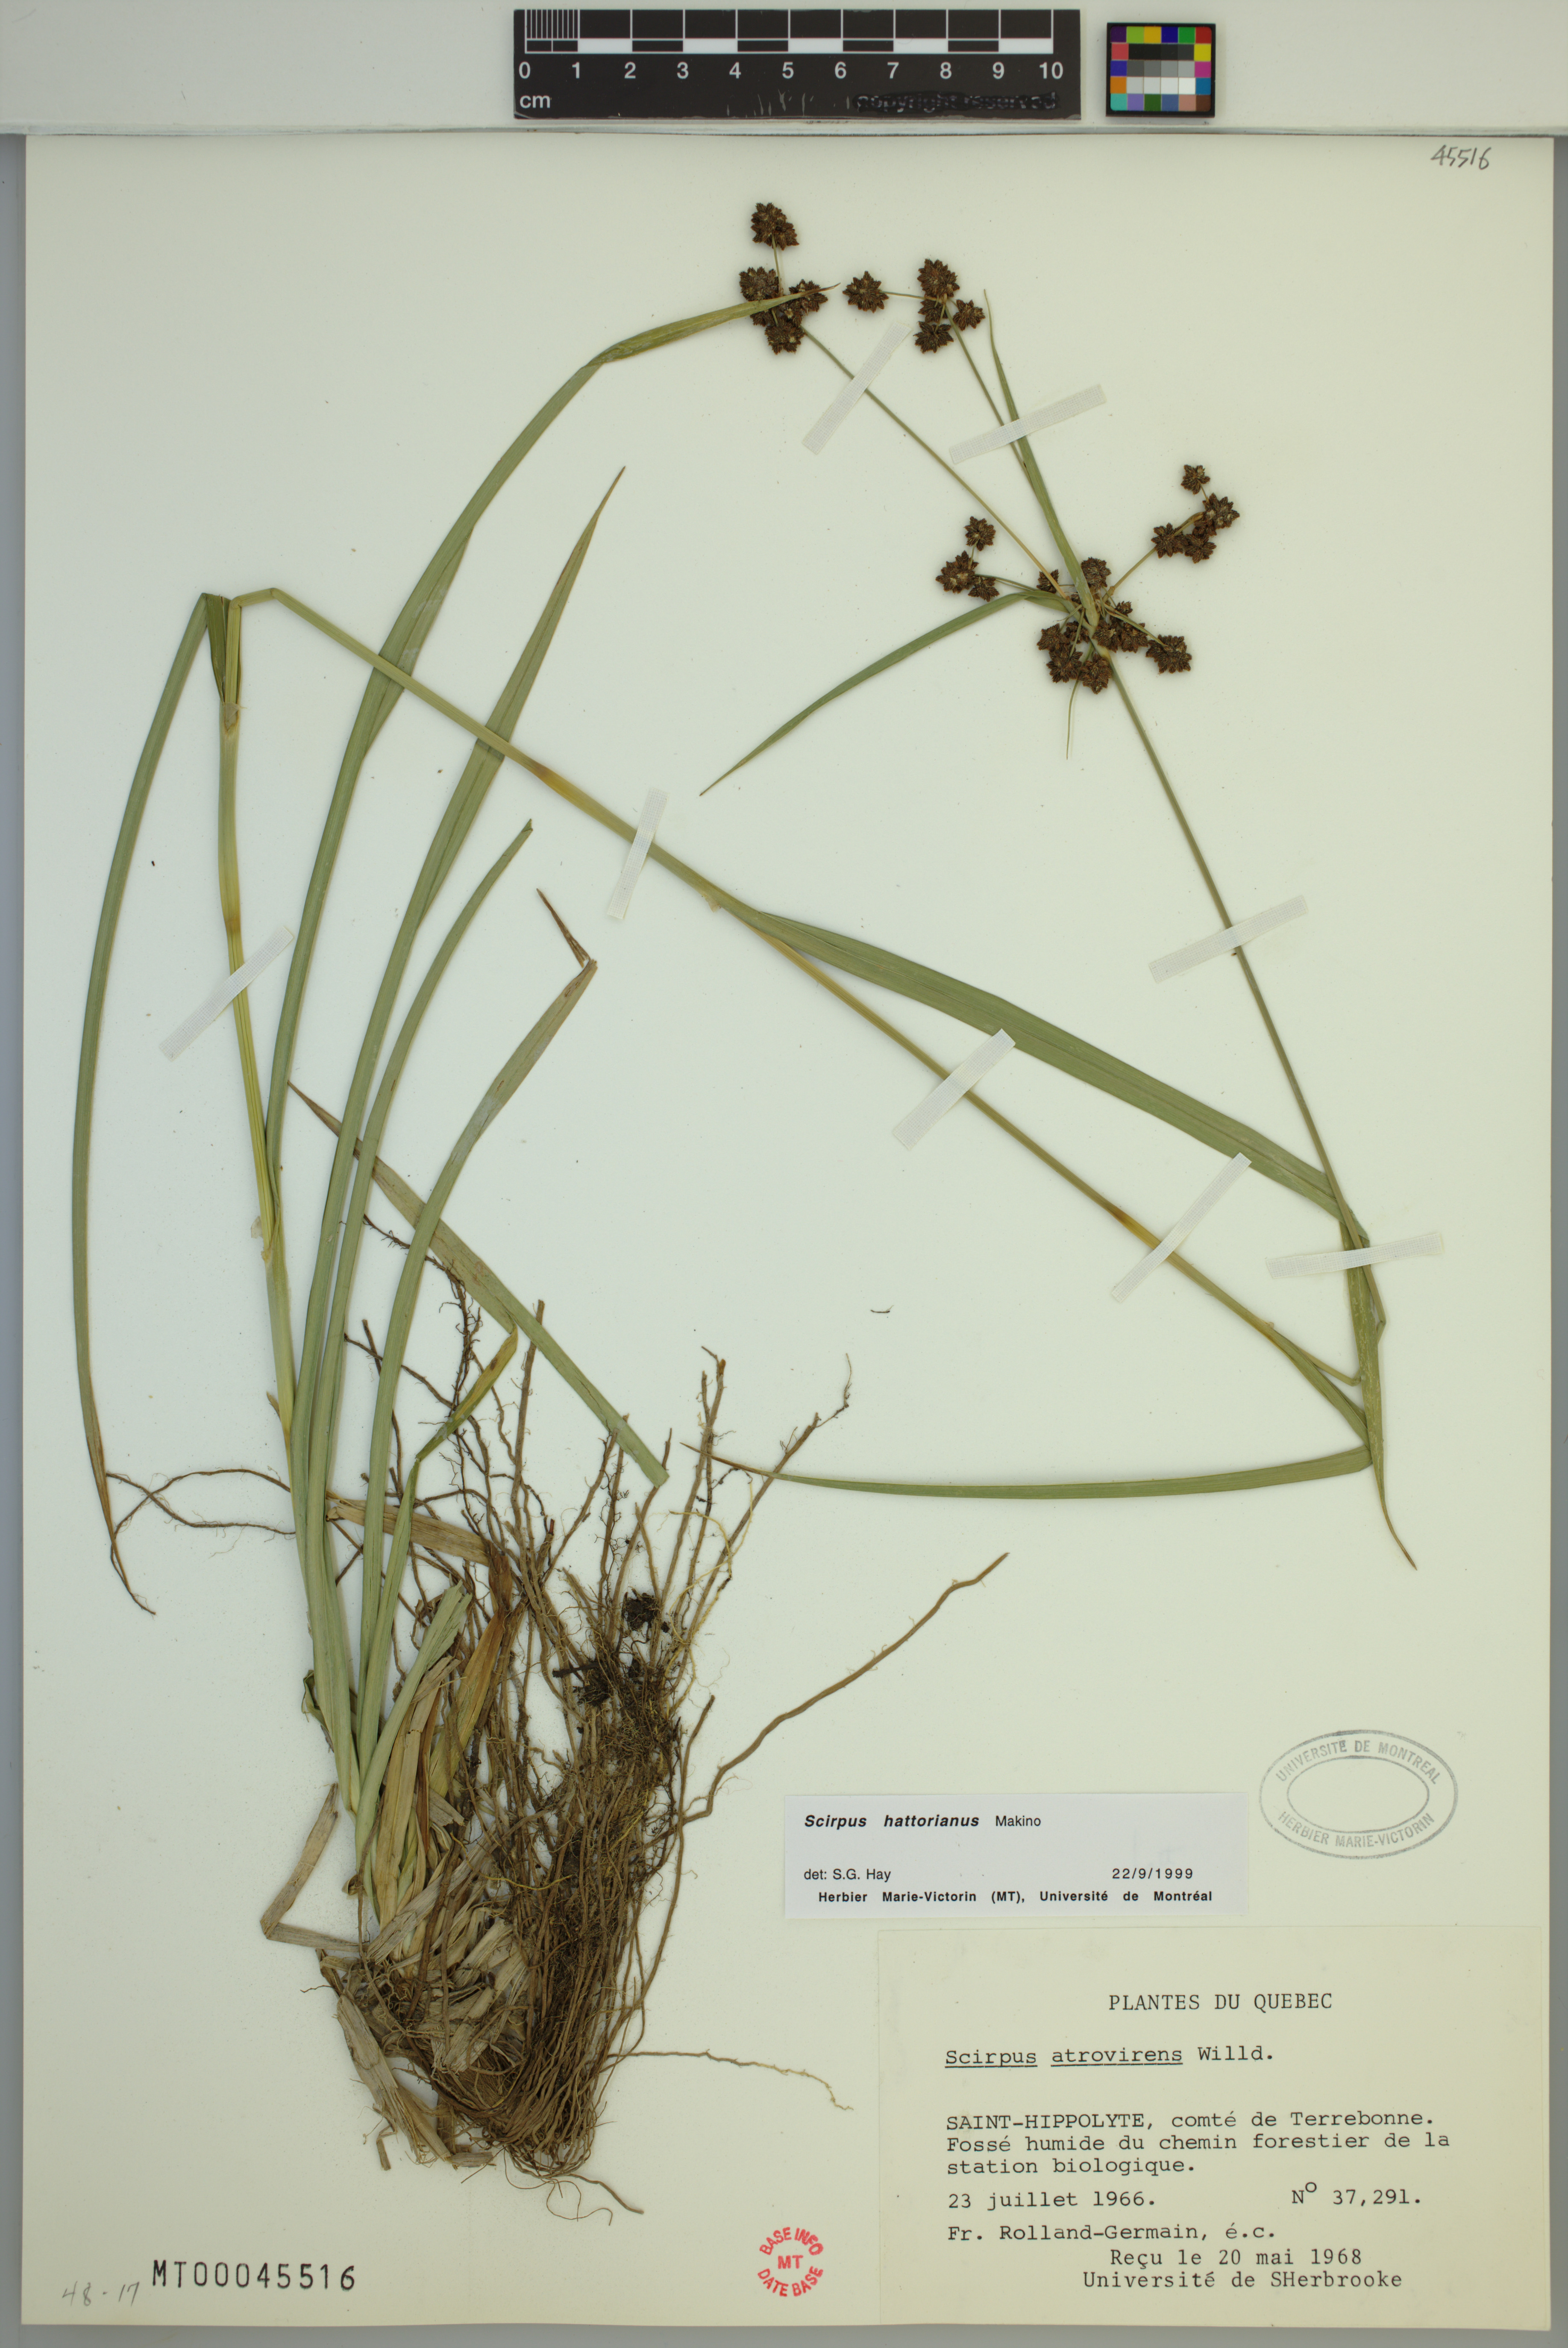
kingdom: Plantae
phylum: Tracheophyta
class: Liliopsida
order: Poales
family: Cyperaceae
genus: Scirpus
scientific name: Scirpus hattorianus
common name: Early dark-green bulrush
